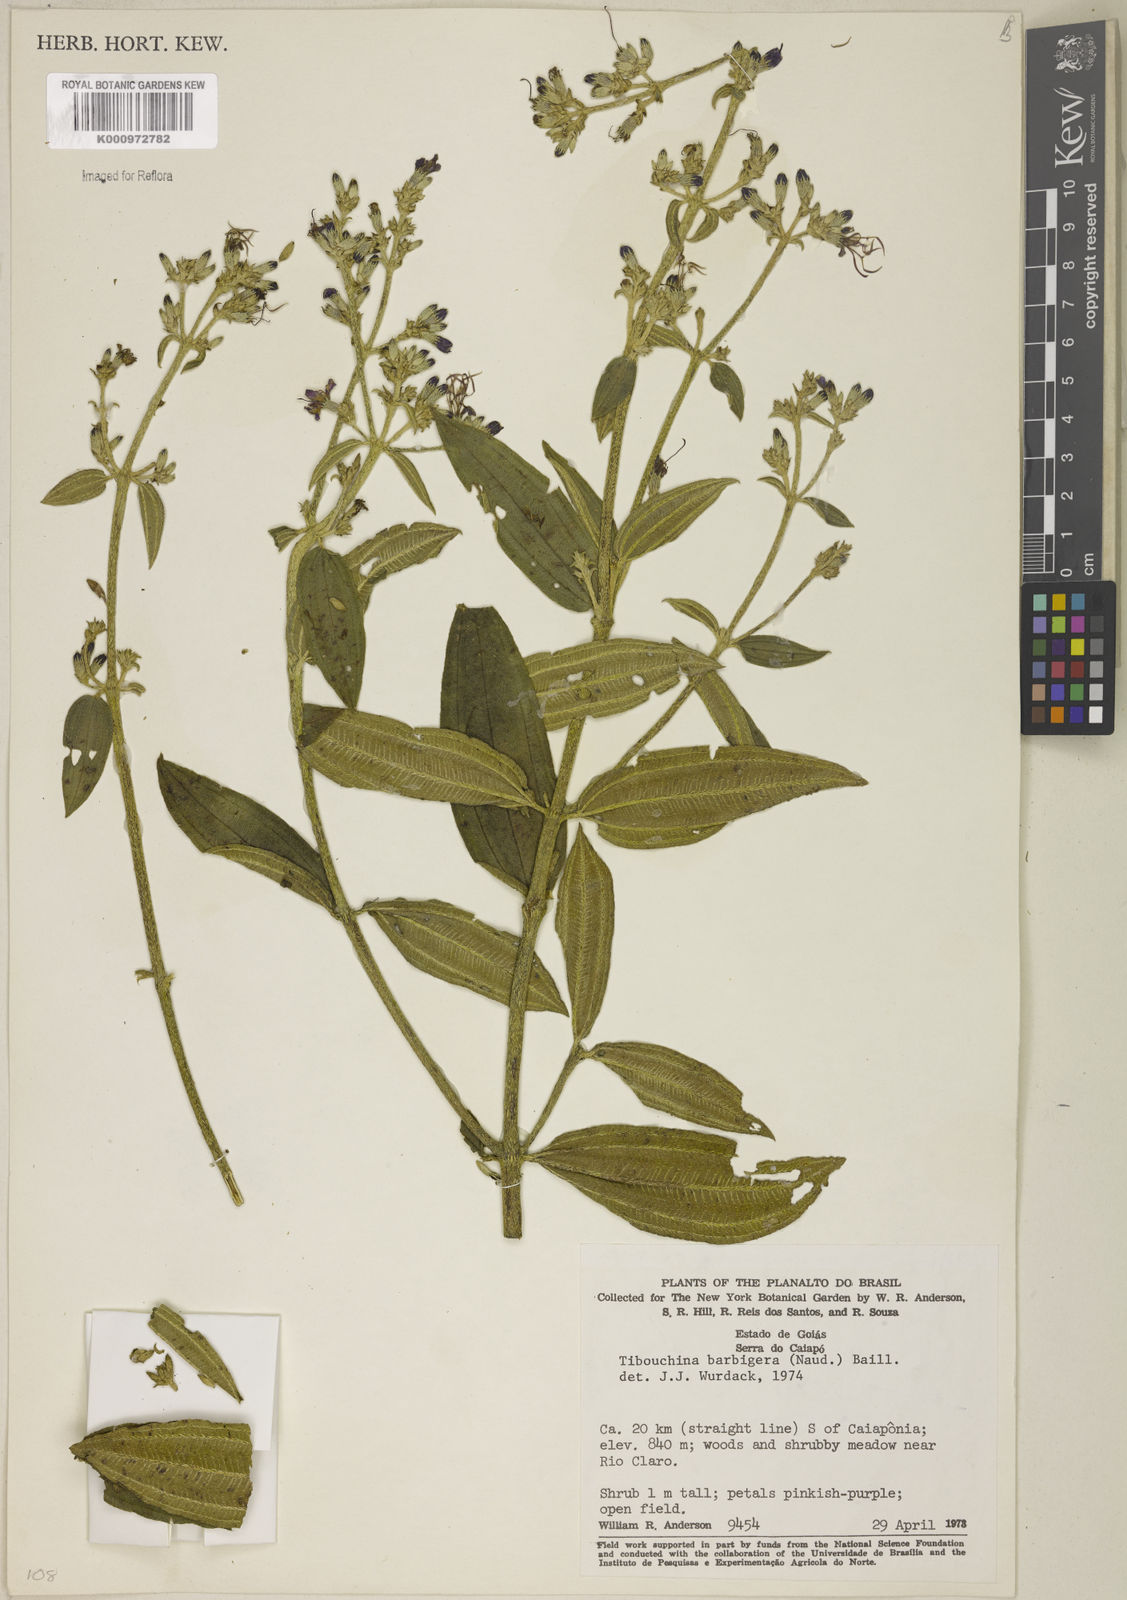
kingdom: Plantae
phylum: Tracheophyta
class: Magnoliopsida
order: Myrtales
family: Melastomataceae
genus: Pleroma
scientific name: Pleroma barbigerum
